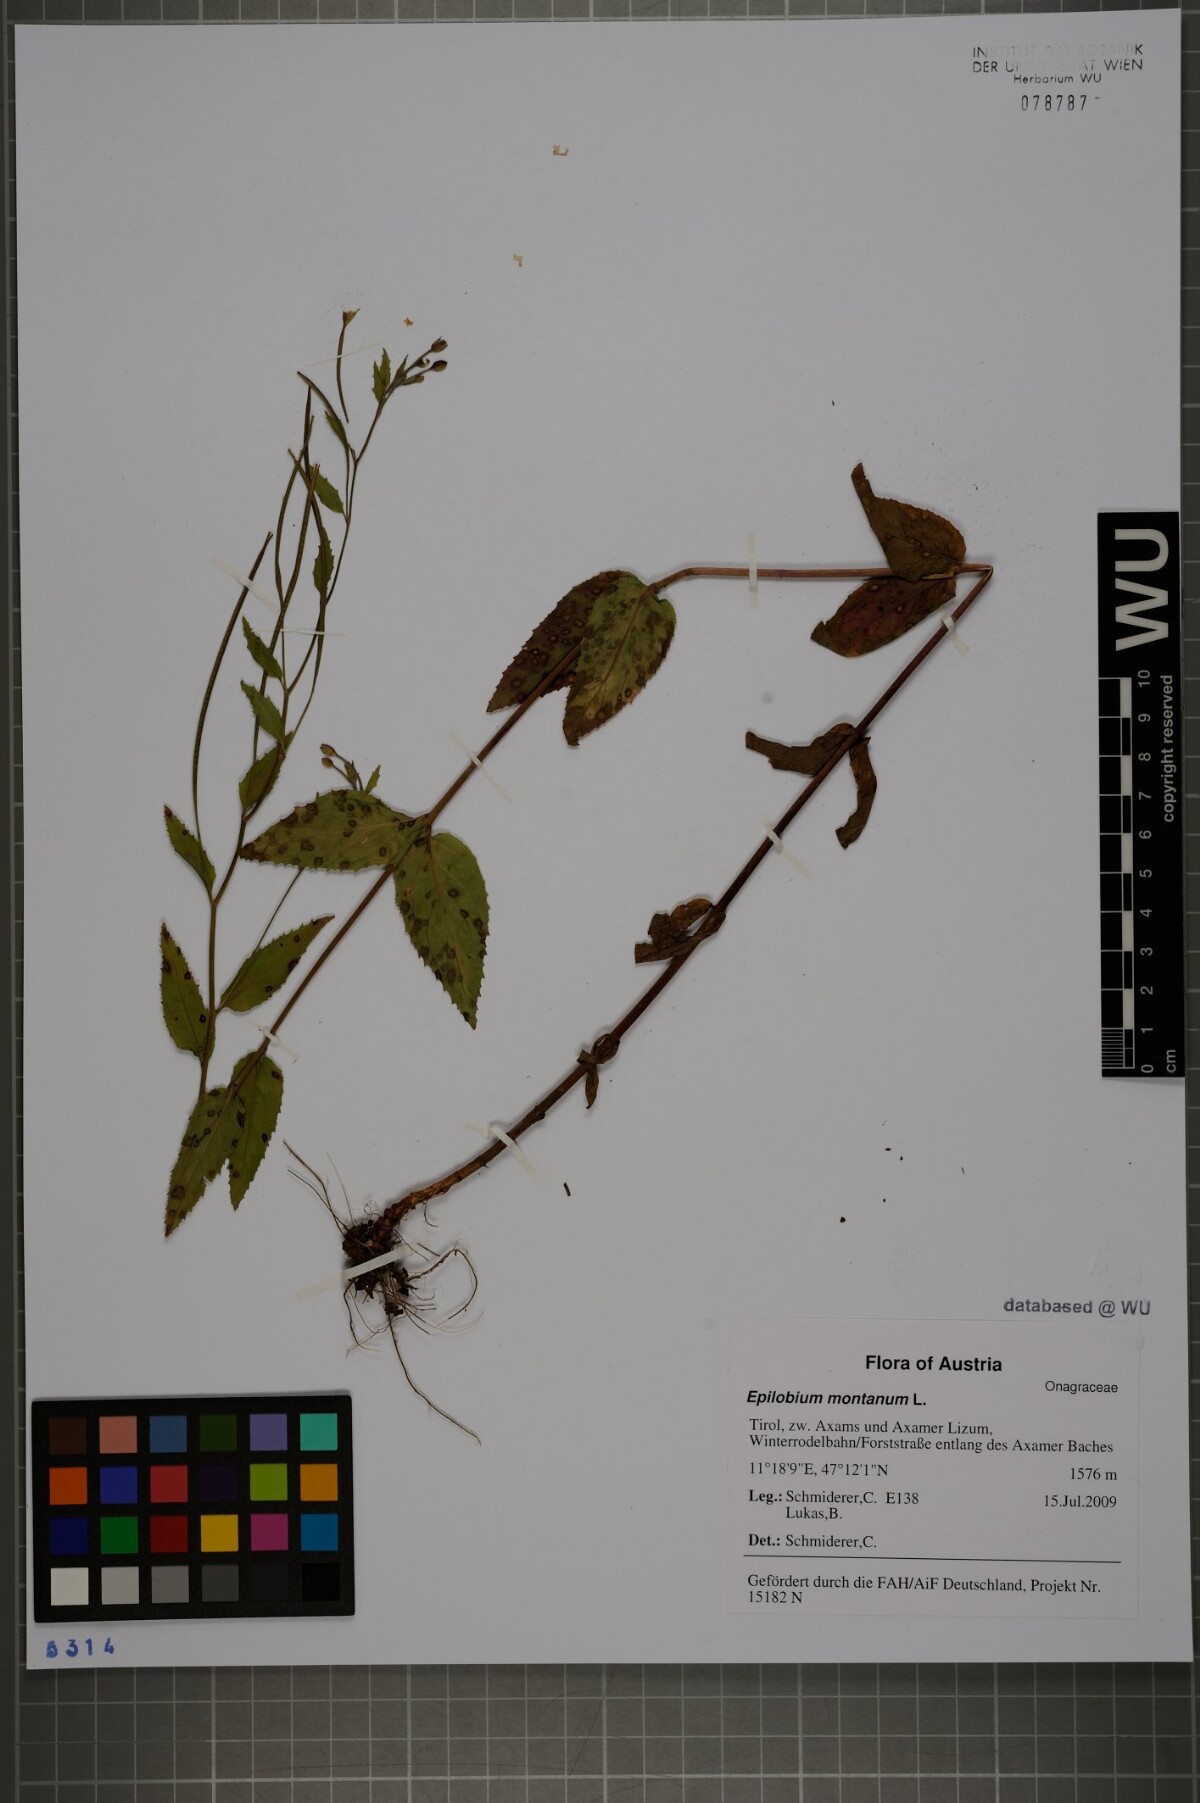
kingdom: Plantae
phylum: Tracheophyta
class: Magnoliopsida
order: Myrtales
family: Onagraceae
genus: Epilobium
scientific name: Epilobium montanum
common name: Broad-leaved willowherb
